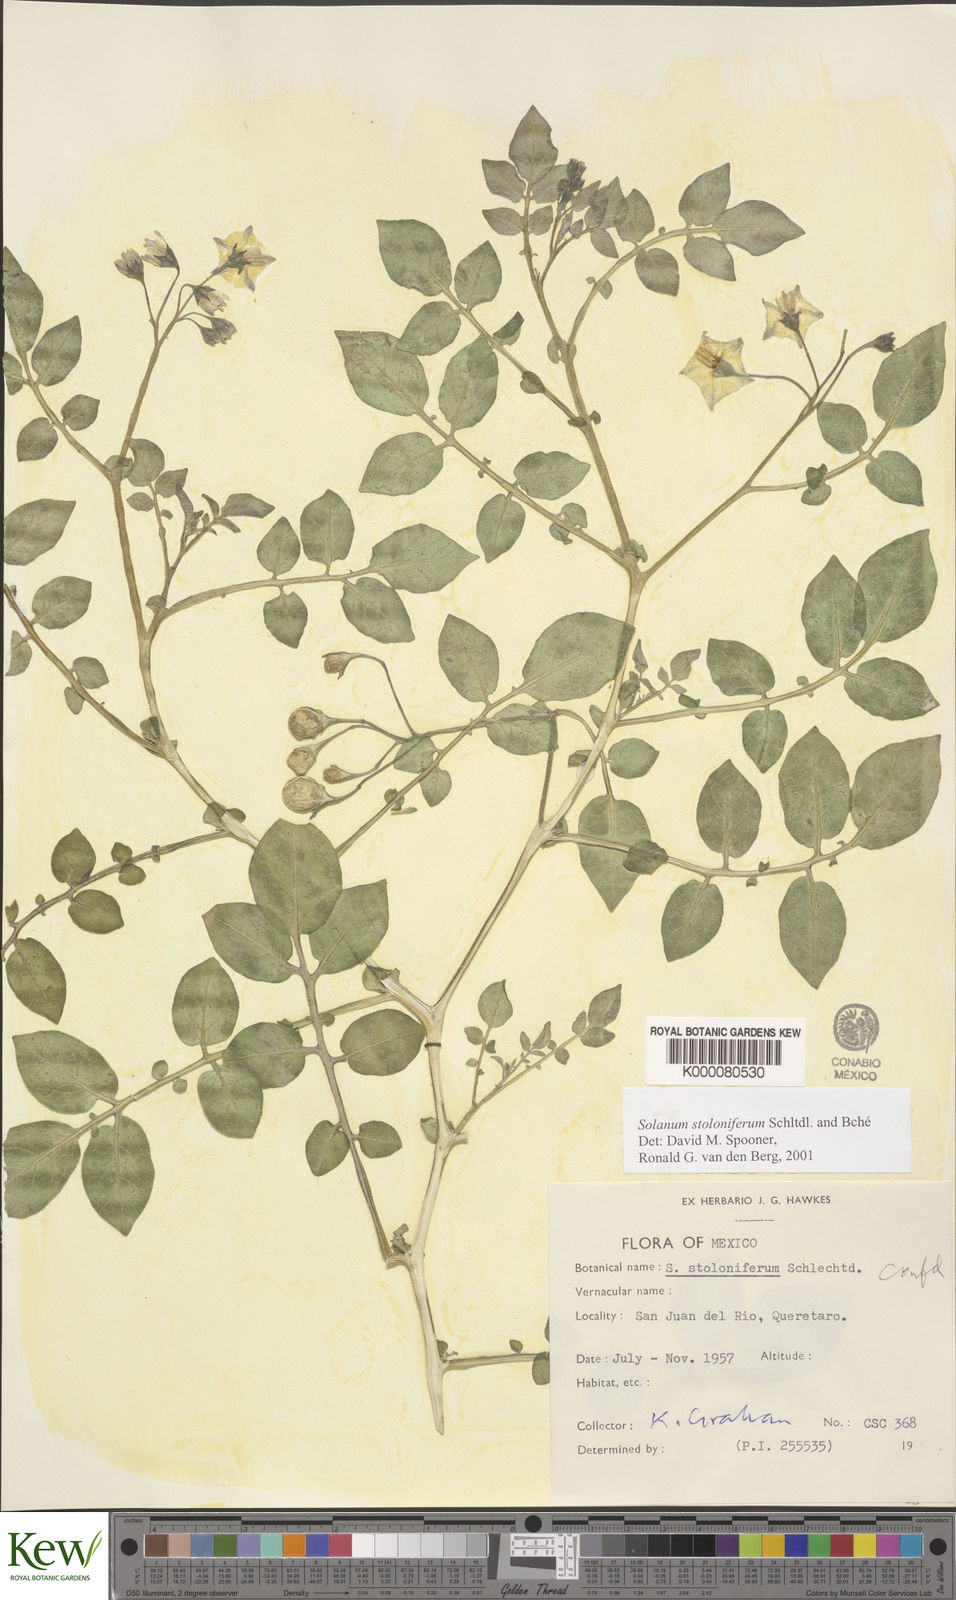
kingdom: Plantae
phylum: Tracheophyta
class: Magnoliopsida
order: Solanales
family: Solanaceae
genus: Solanum
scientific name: Solanum stoloniferum
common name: Fendler's nighshade
